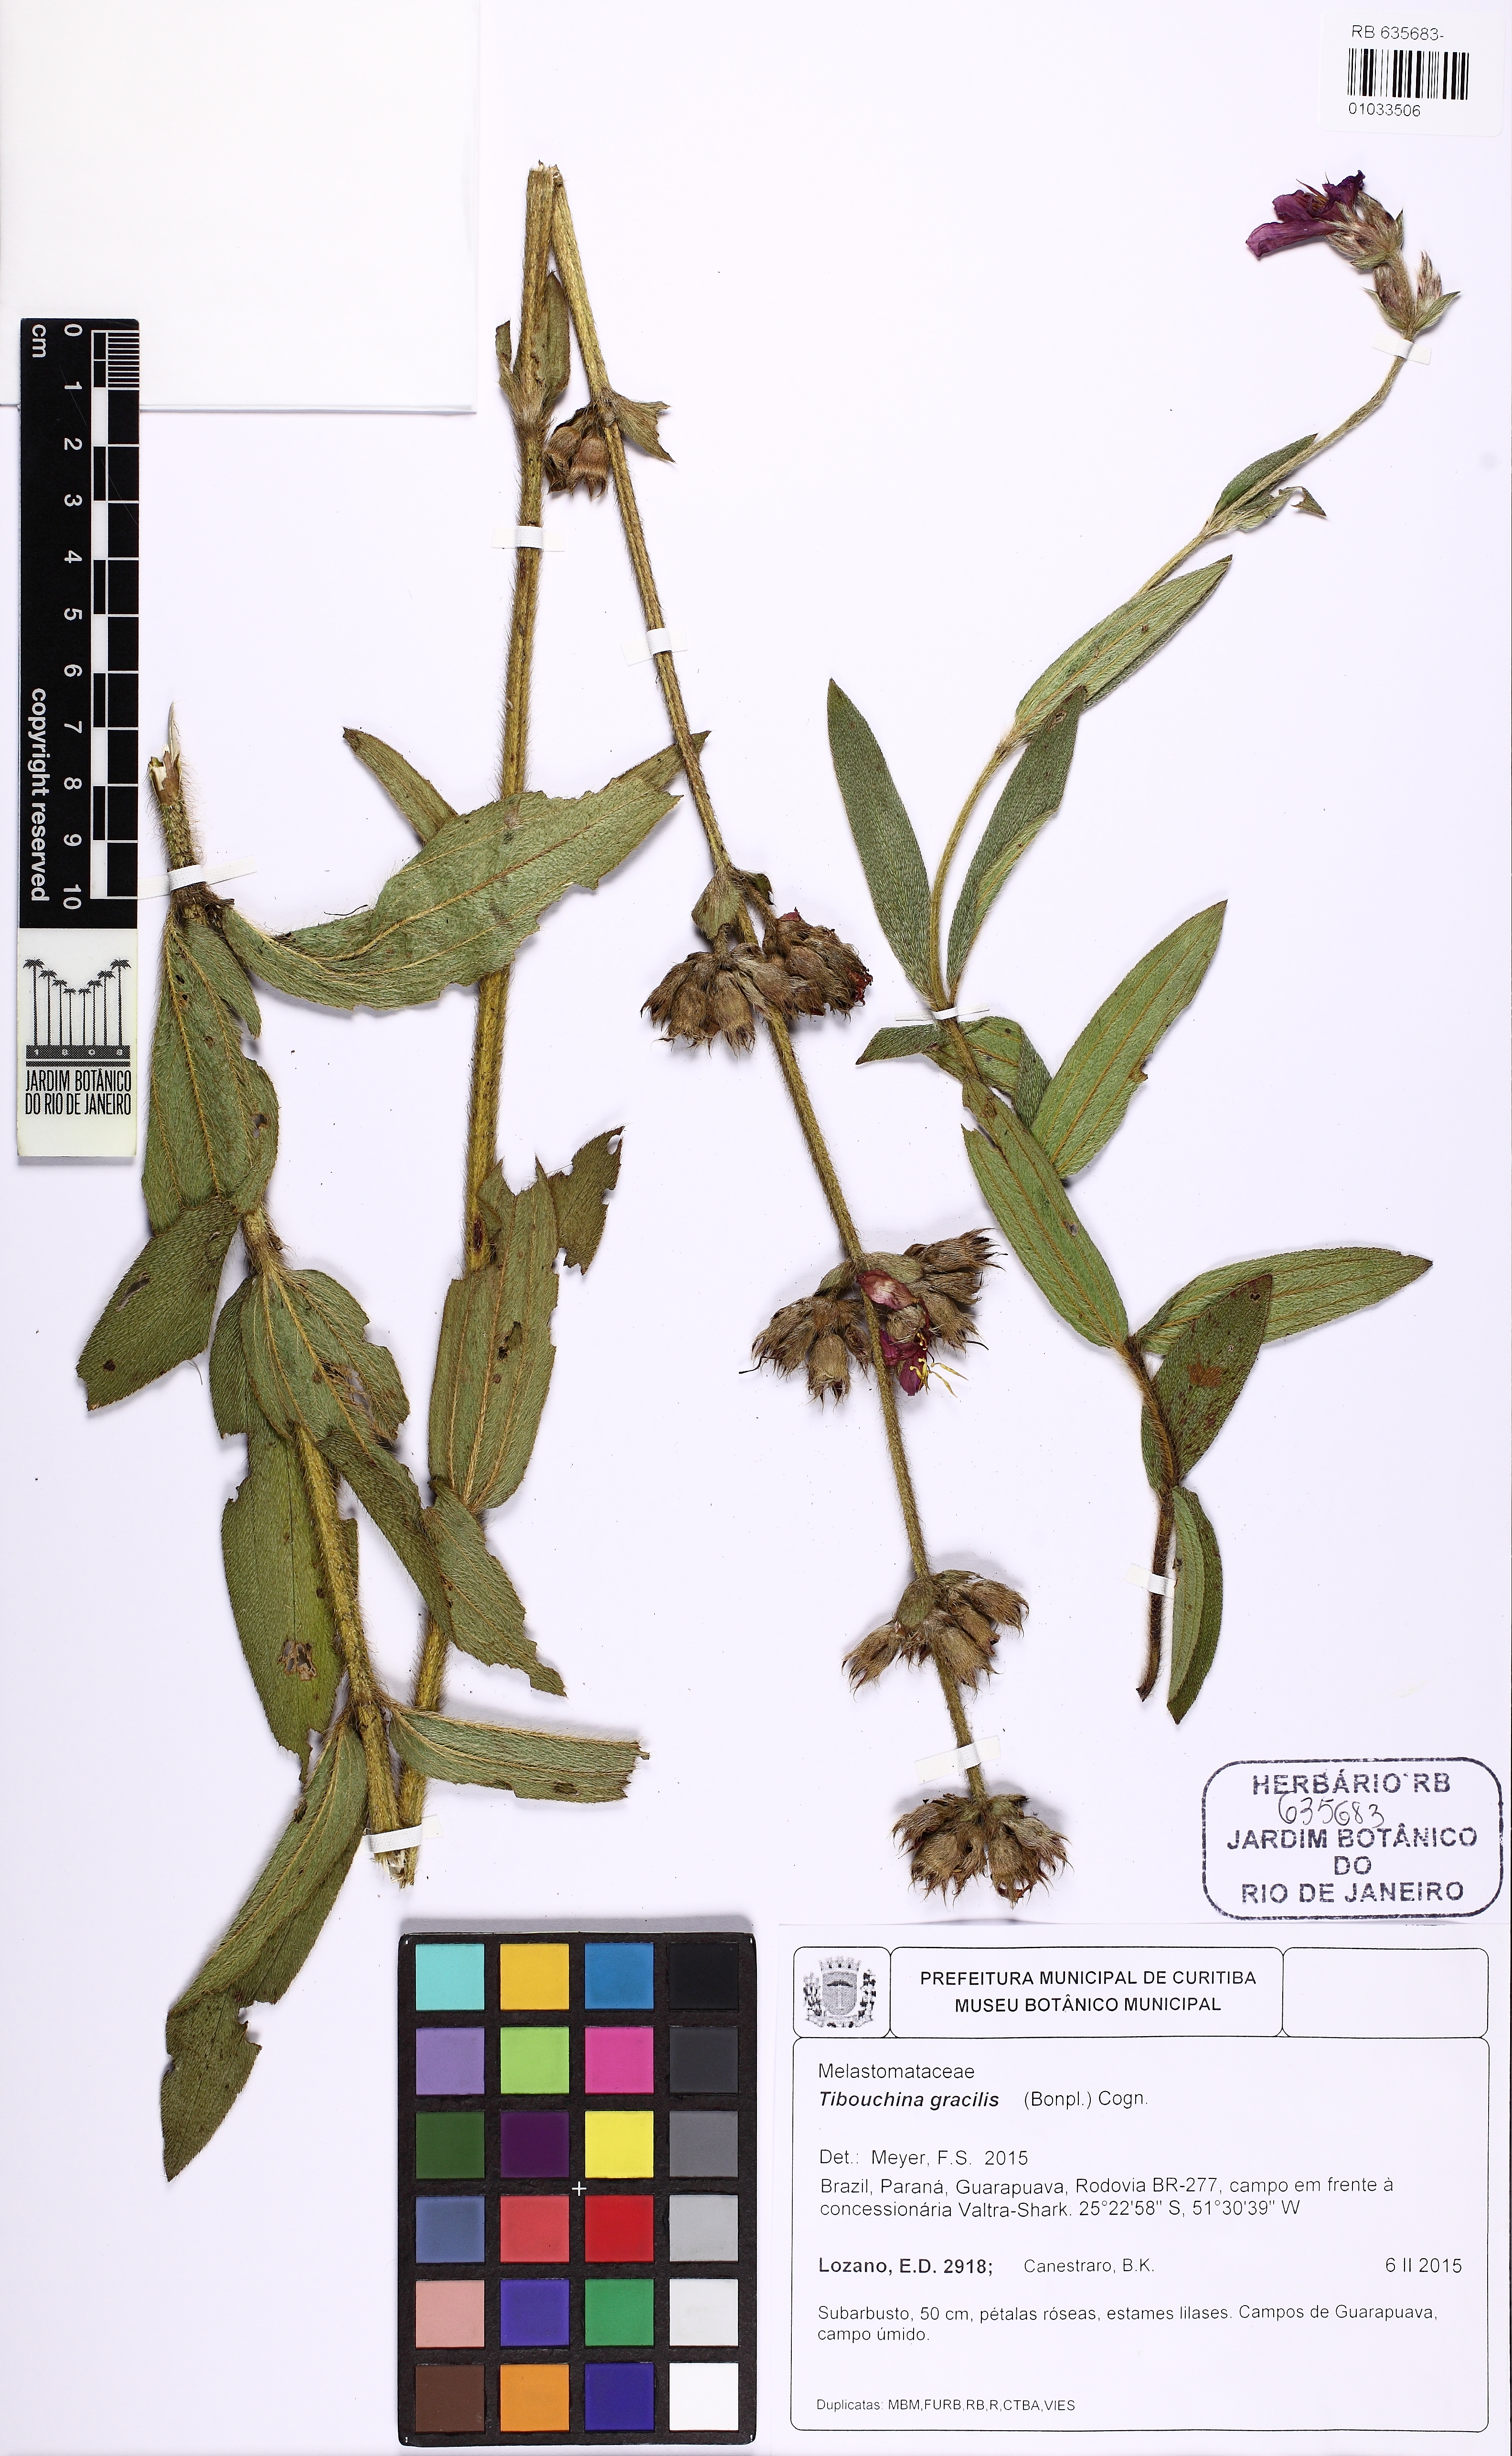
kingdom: Plantae
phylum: Tracheophyta
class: Magnoliopsida
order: Myrtales
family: Melastomataceae
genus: Chaetogastra
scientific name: Chaetogastra gracilis
